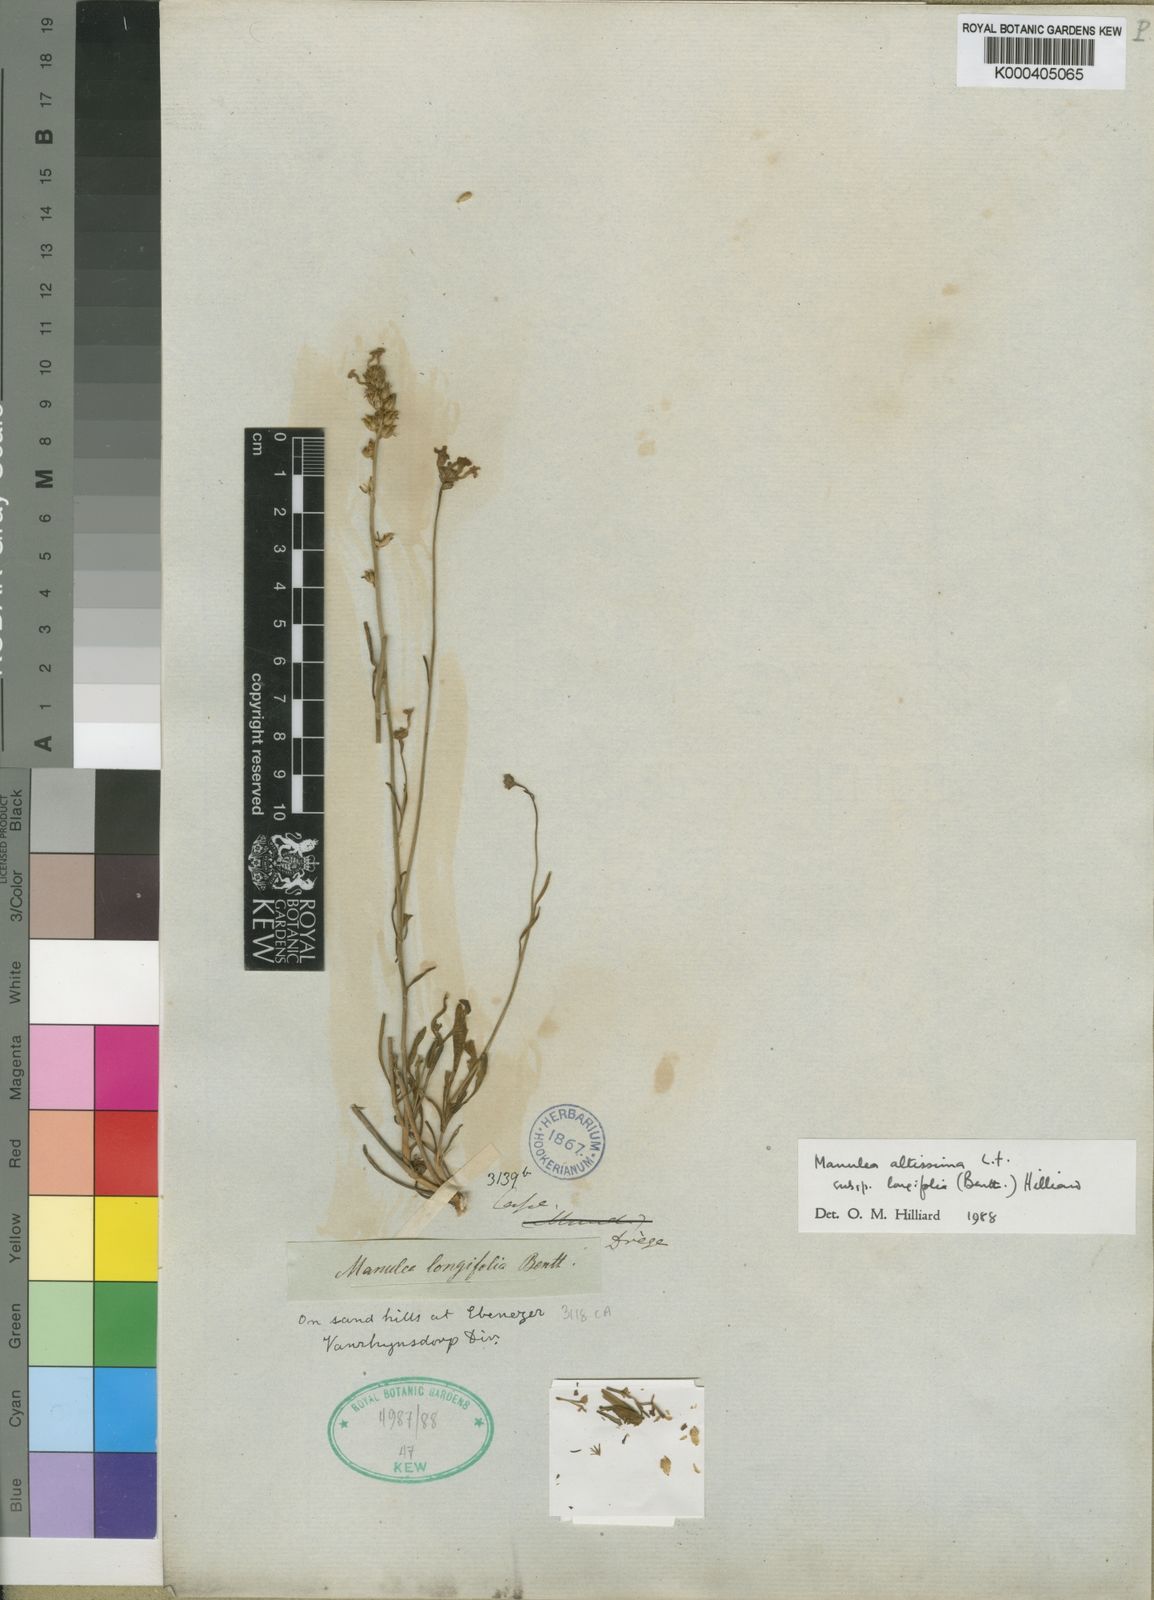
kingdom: Plantae
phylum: Tracheophyta
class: Magnoliopsida
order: Lamiales
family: Scrophulariaceae
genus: Manulea
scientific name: Manulea altissima
